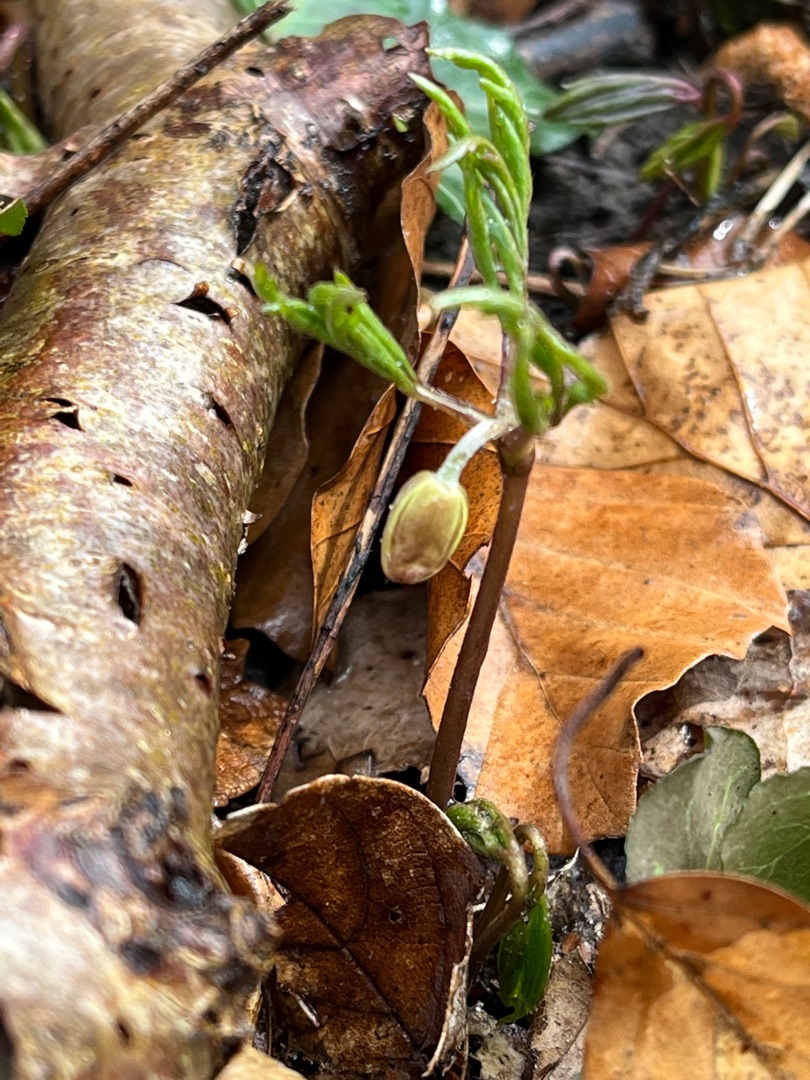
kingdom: Plantae
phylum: Tracheophyta
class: Magnoliopsida
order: Ranunculales
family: Ranunculaceae
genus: Anemone
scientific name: Anemone nemorosa
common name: Hvid anemone
